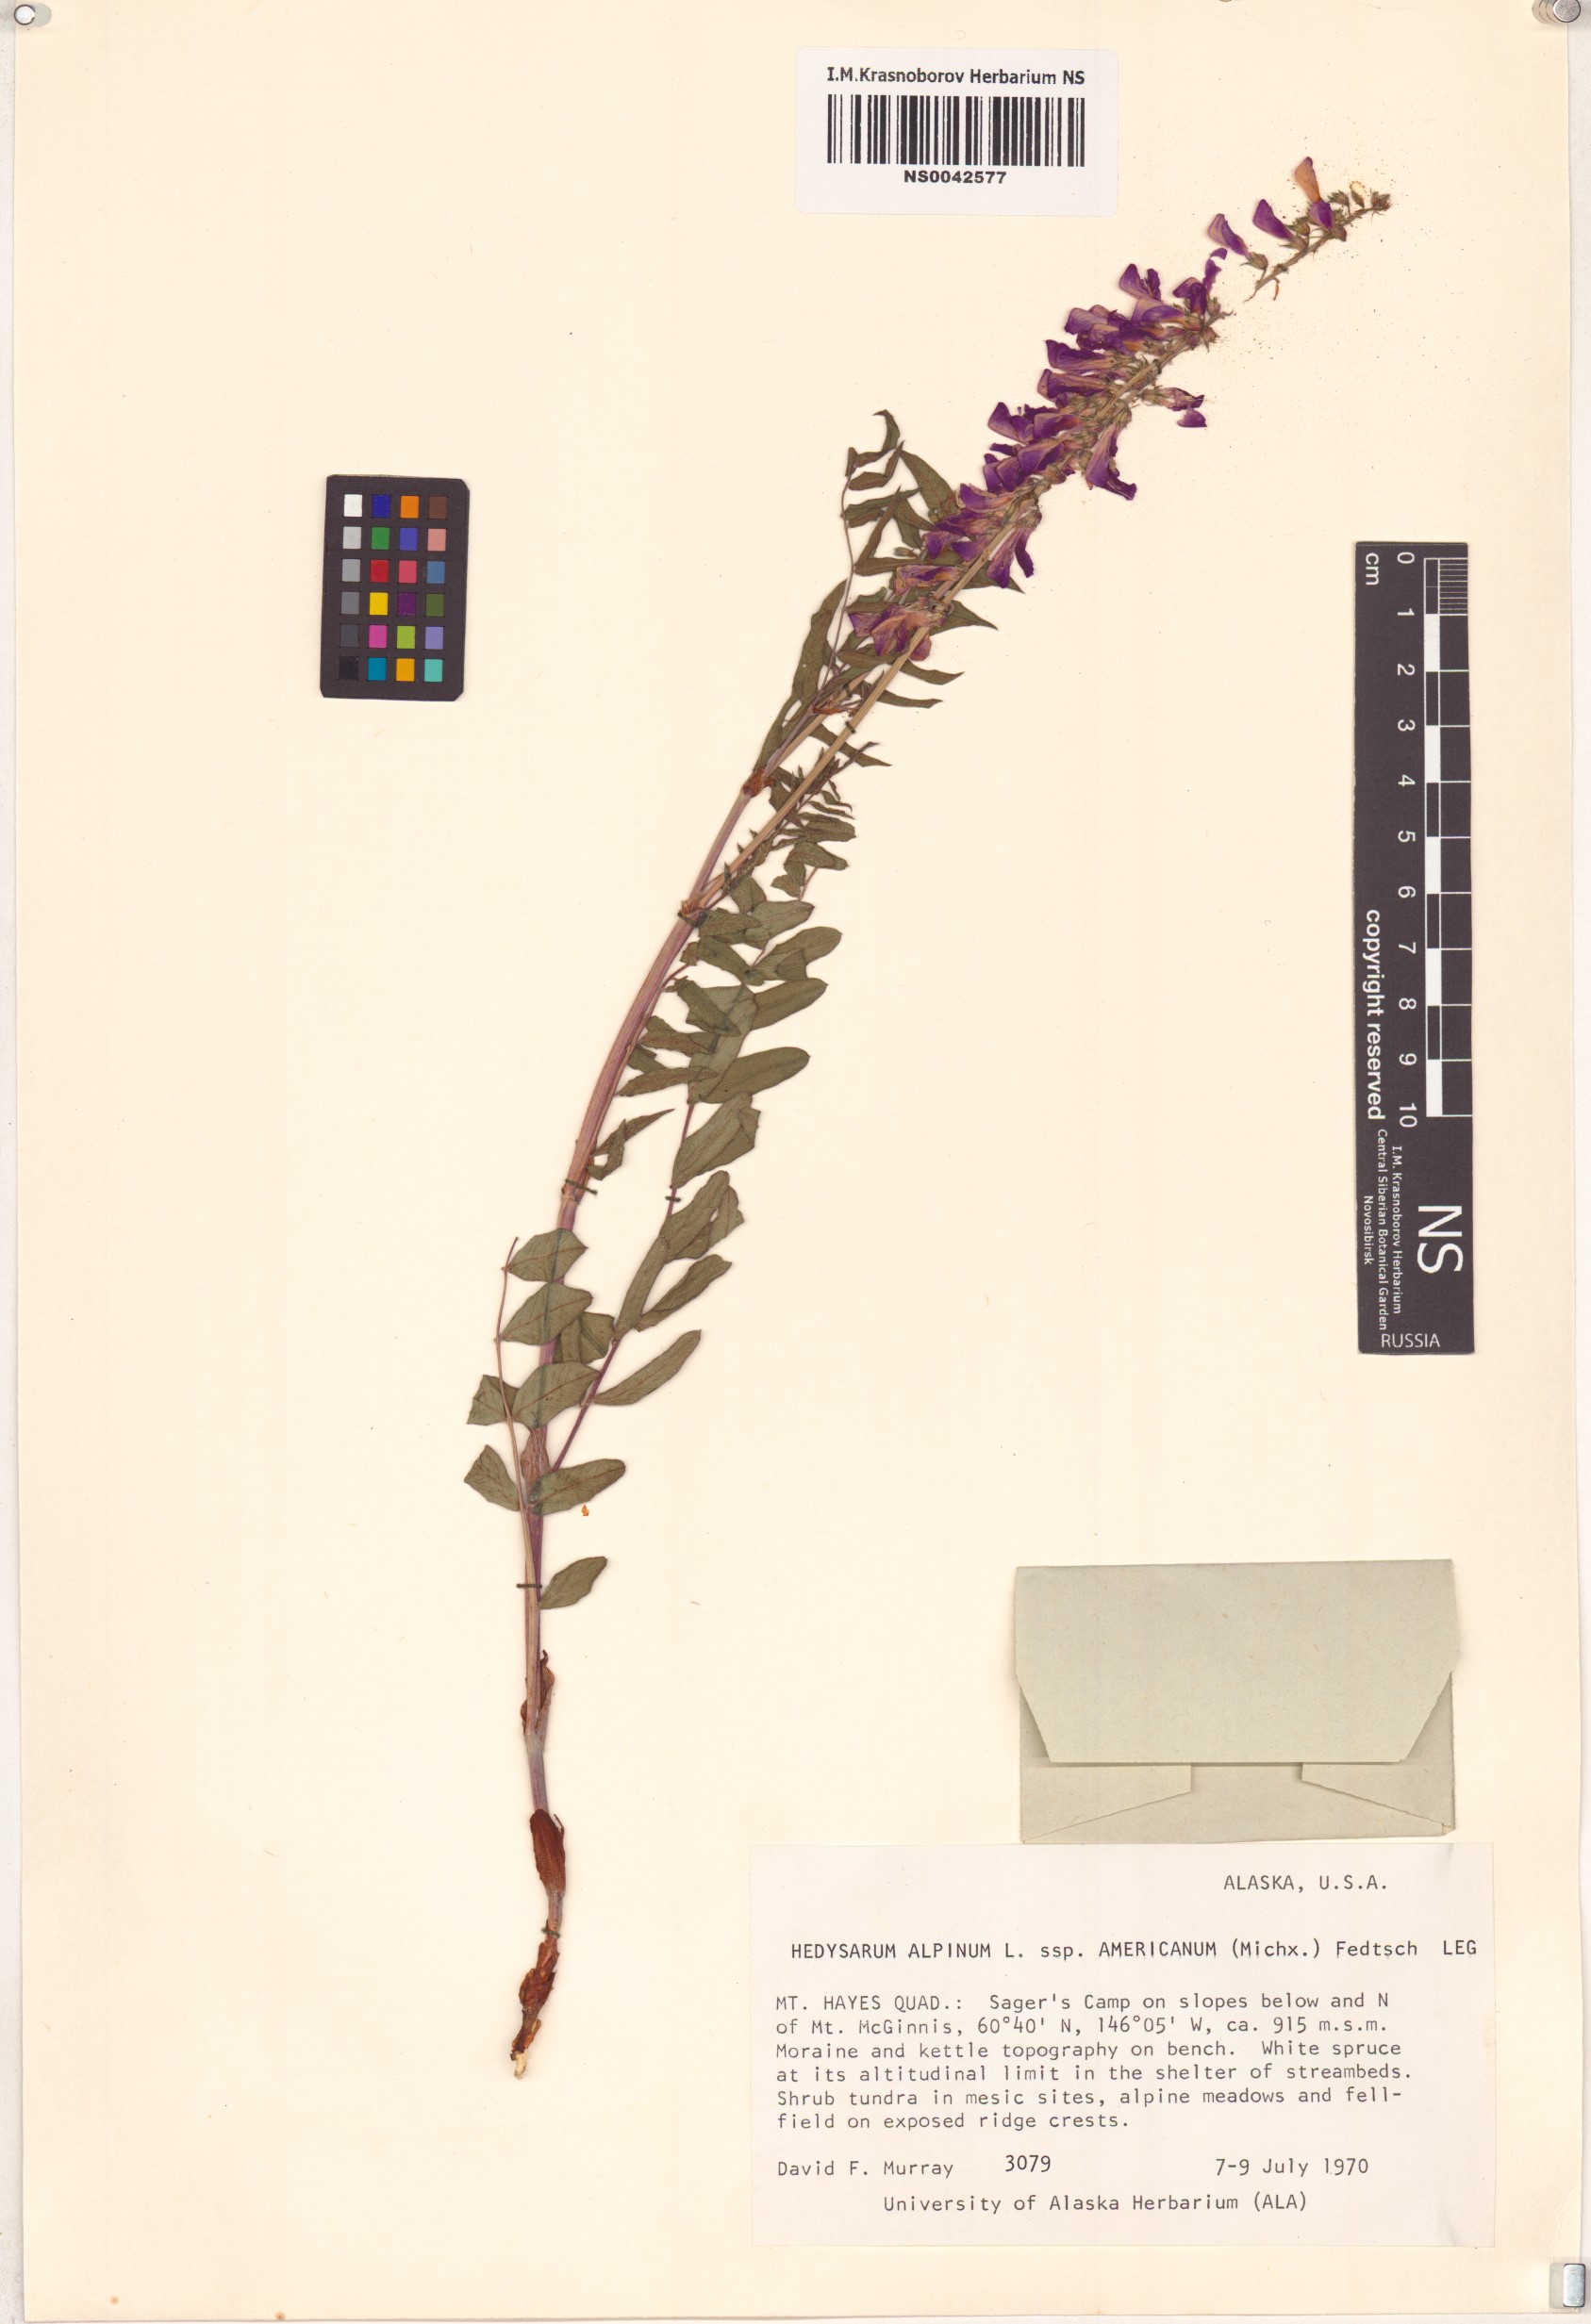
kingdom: Plantae
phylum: Tracheophyta
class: Magnoliopsida
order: Fabales
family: Fabaceae
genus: Hedysarum
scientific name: Hedysarum americanum
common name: Alpine hedysarum
